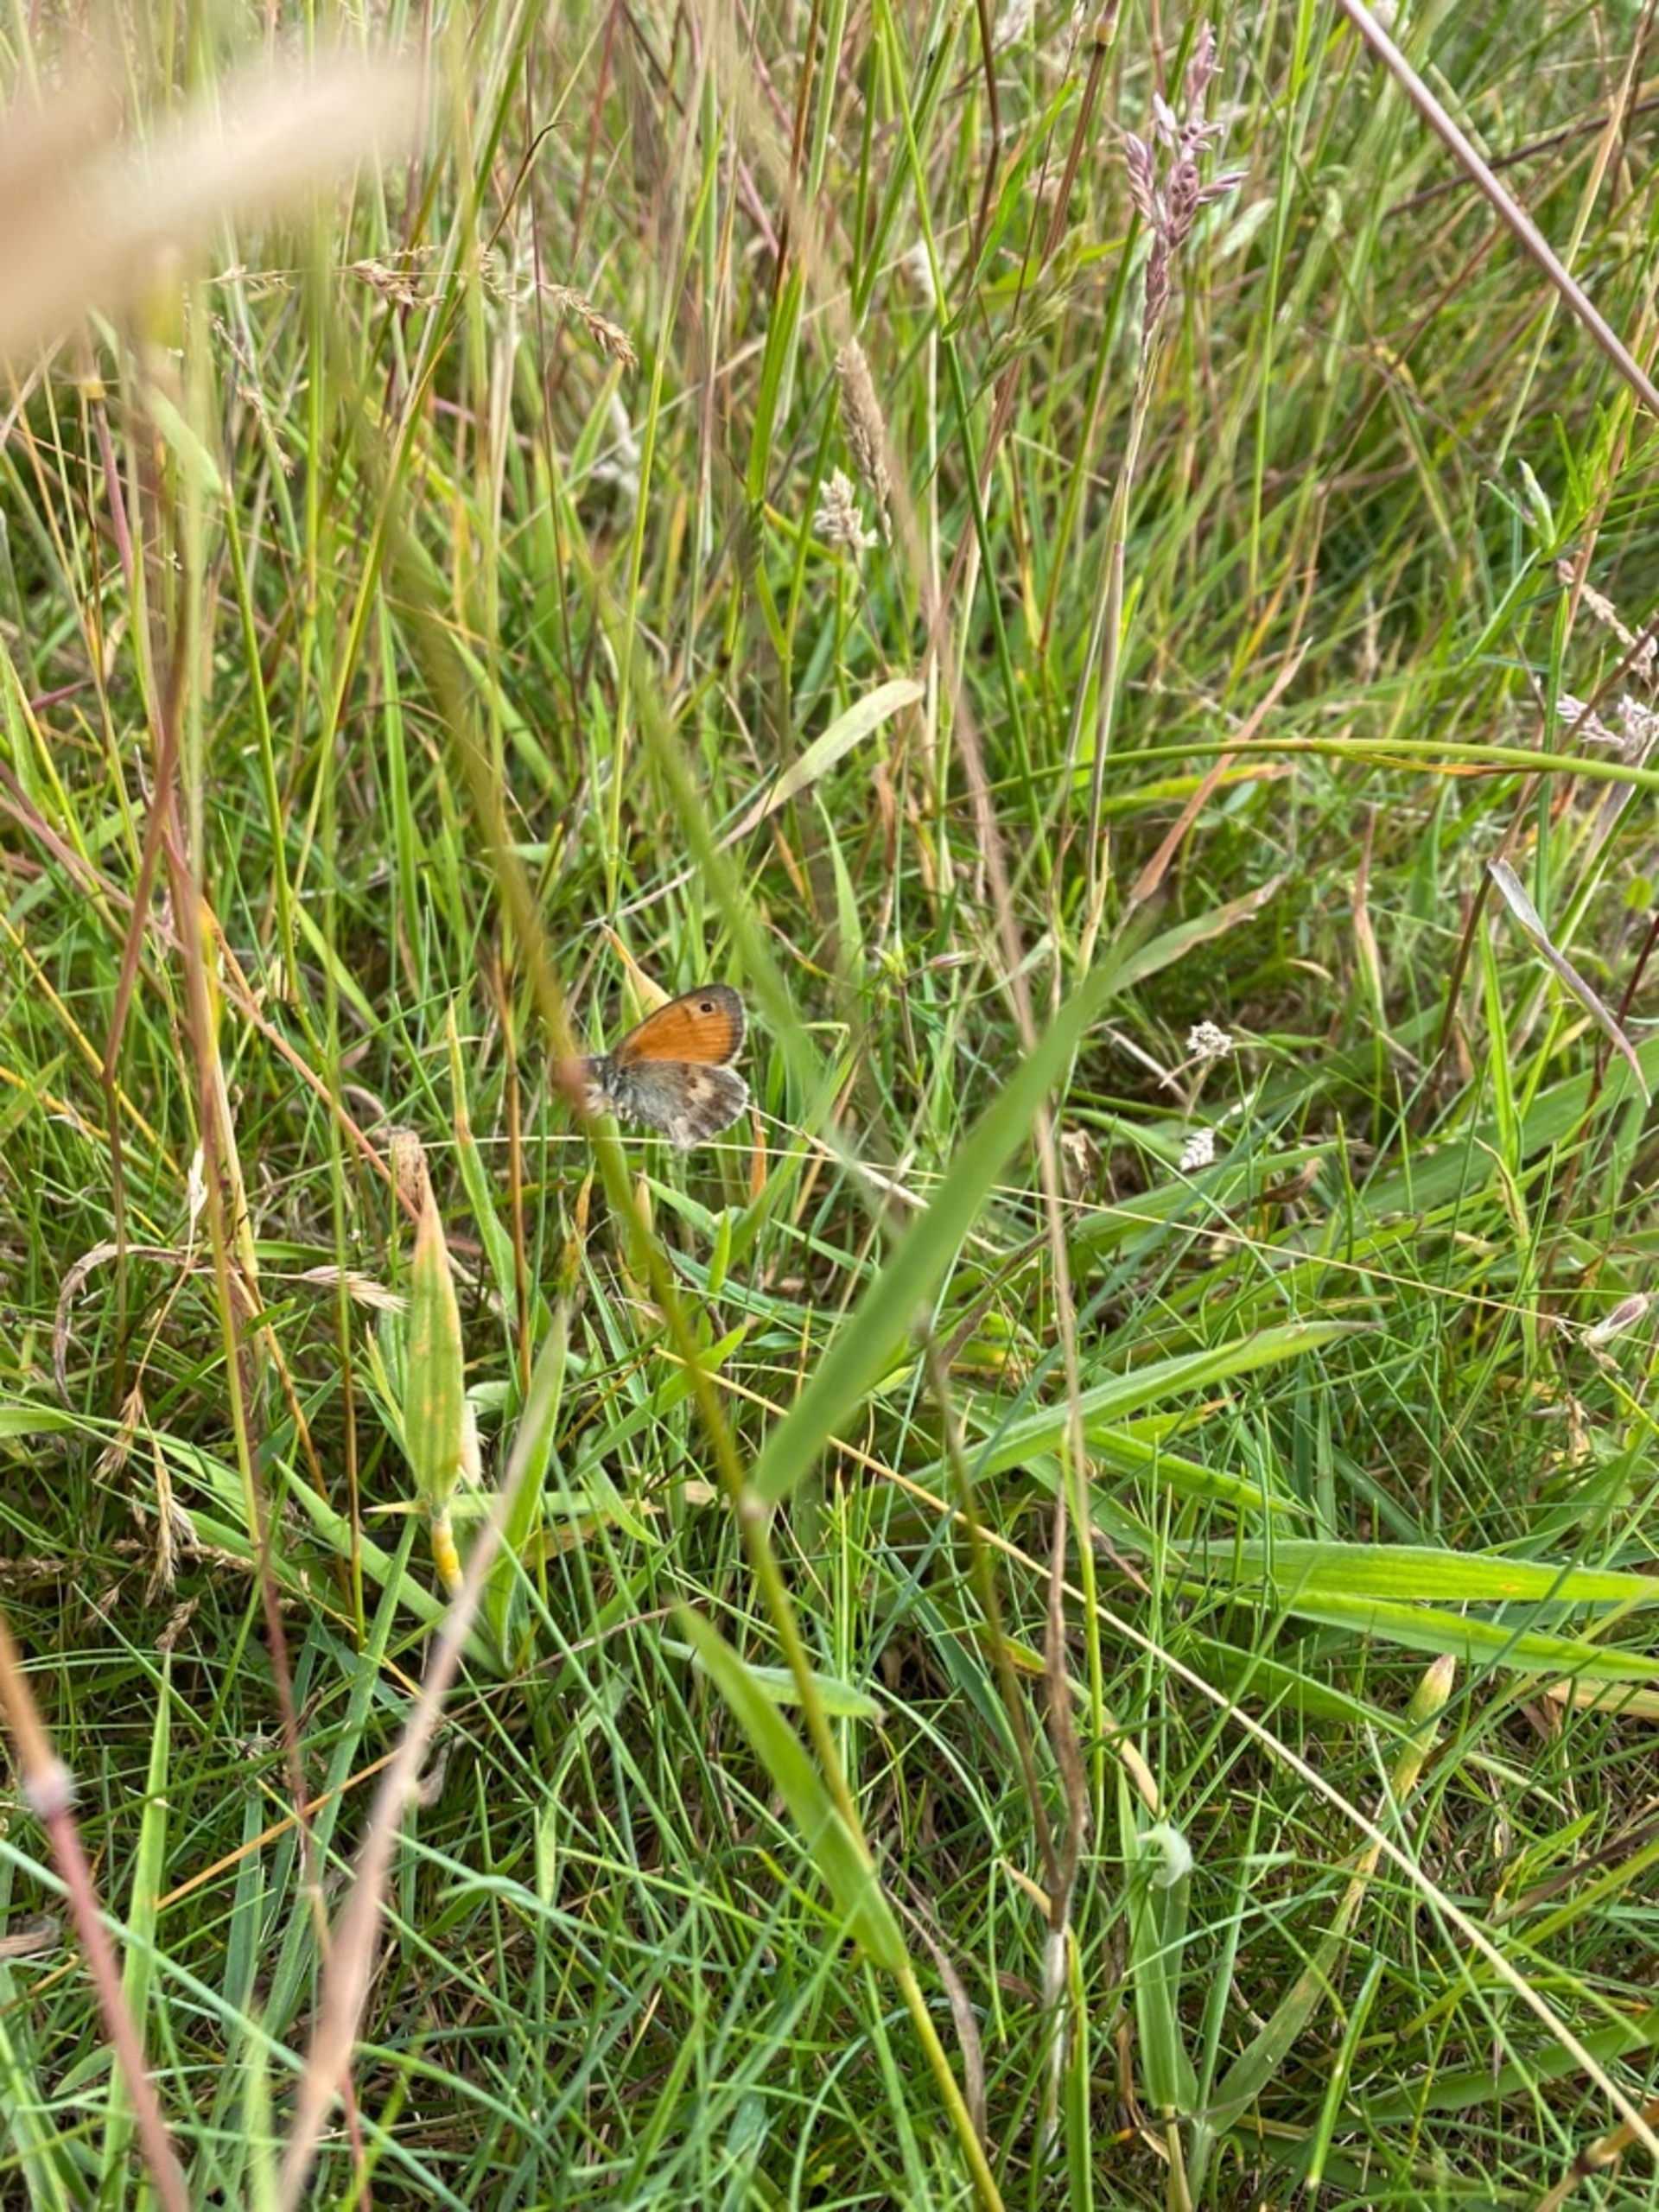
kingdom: Animalia
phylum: Arthropoda
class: Insecta
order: Lepidoptera
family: Nymphalidae
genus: Coenonympha
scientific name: Coenonympha pamphilus
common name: Okkergul randøje
